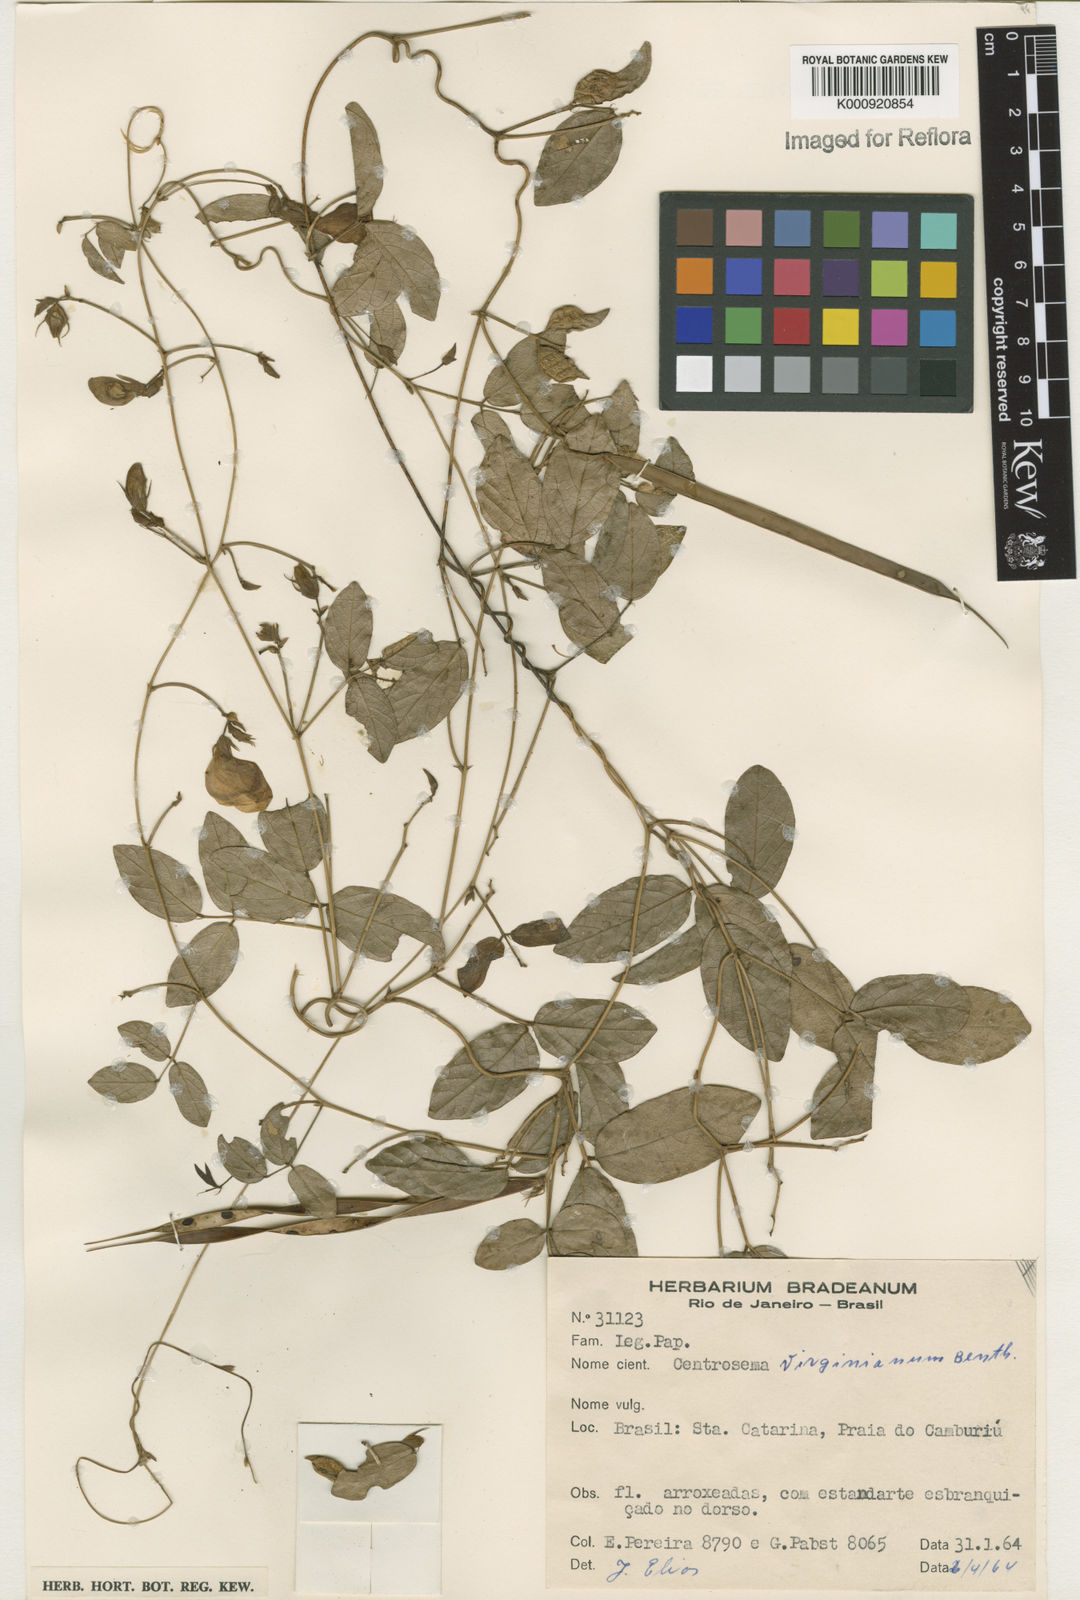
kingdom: Plantae
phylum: Tracheophyta
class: Magnoliopsida
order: Fabales
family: Fabaceae
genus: Centrosema
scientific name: Centrosema virginianum
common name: Butterfly-pea
